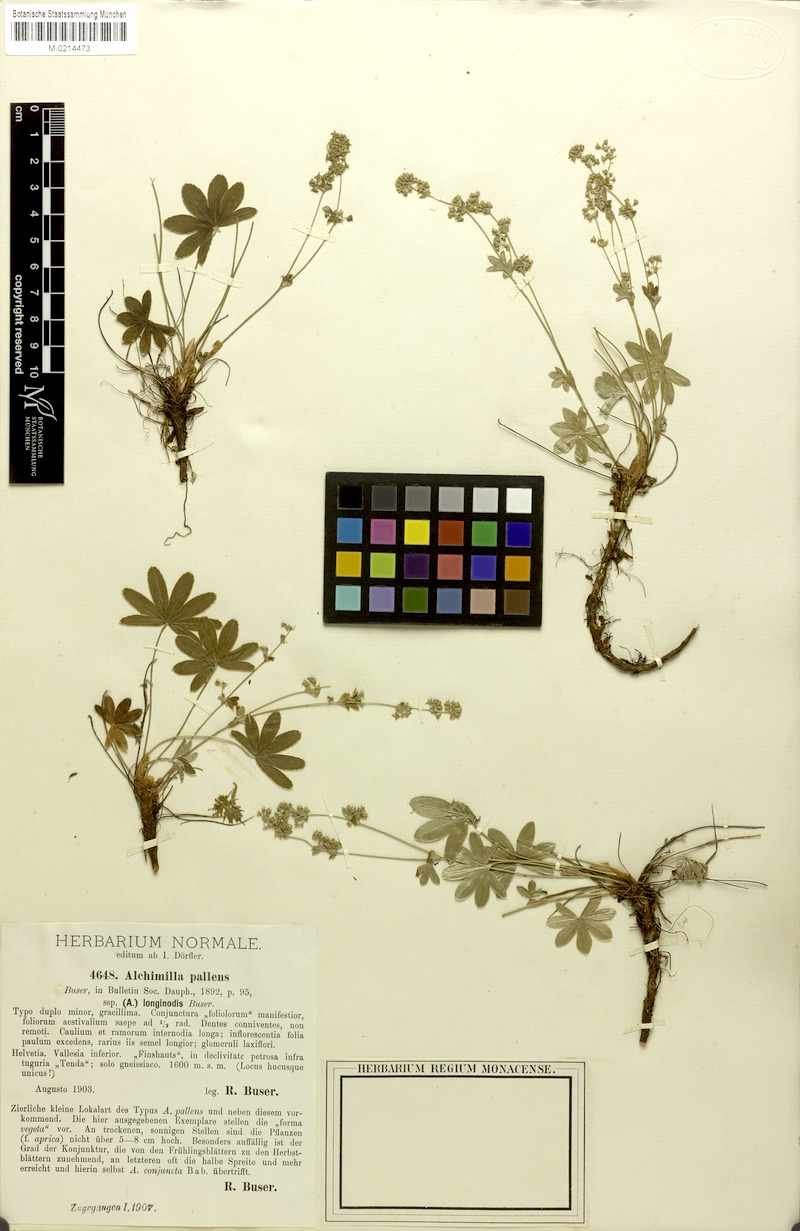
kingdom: Plantae
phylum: Tracheophyta
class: Magnoliopsida
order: Rosales
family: Rosaceae
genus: Alchemilla
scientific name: Alchemilla longinodis
